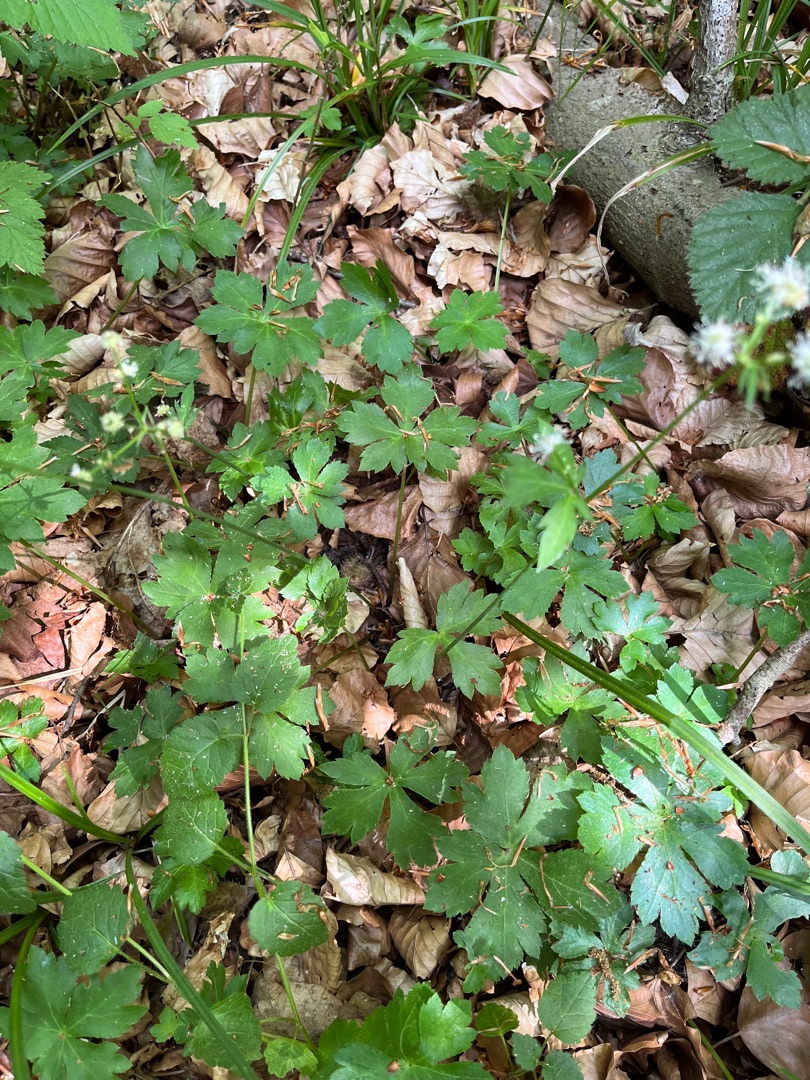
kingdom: Plantae
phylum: Tracheophyta
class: Magnoliopsida
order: Apiales
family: Apiaceae
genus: Sanicula
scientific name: Sanicula europaea
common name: Sanikel
